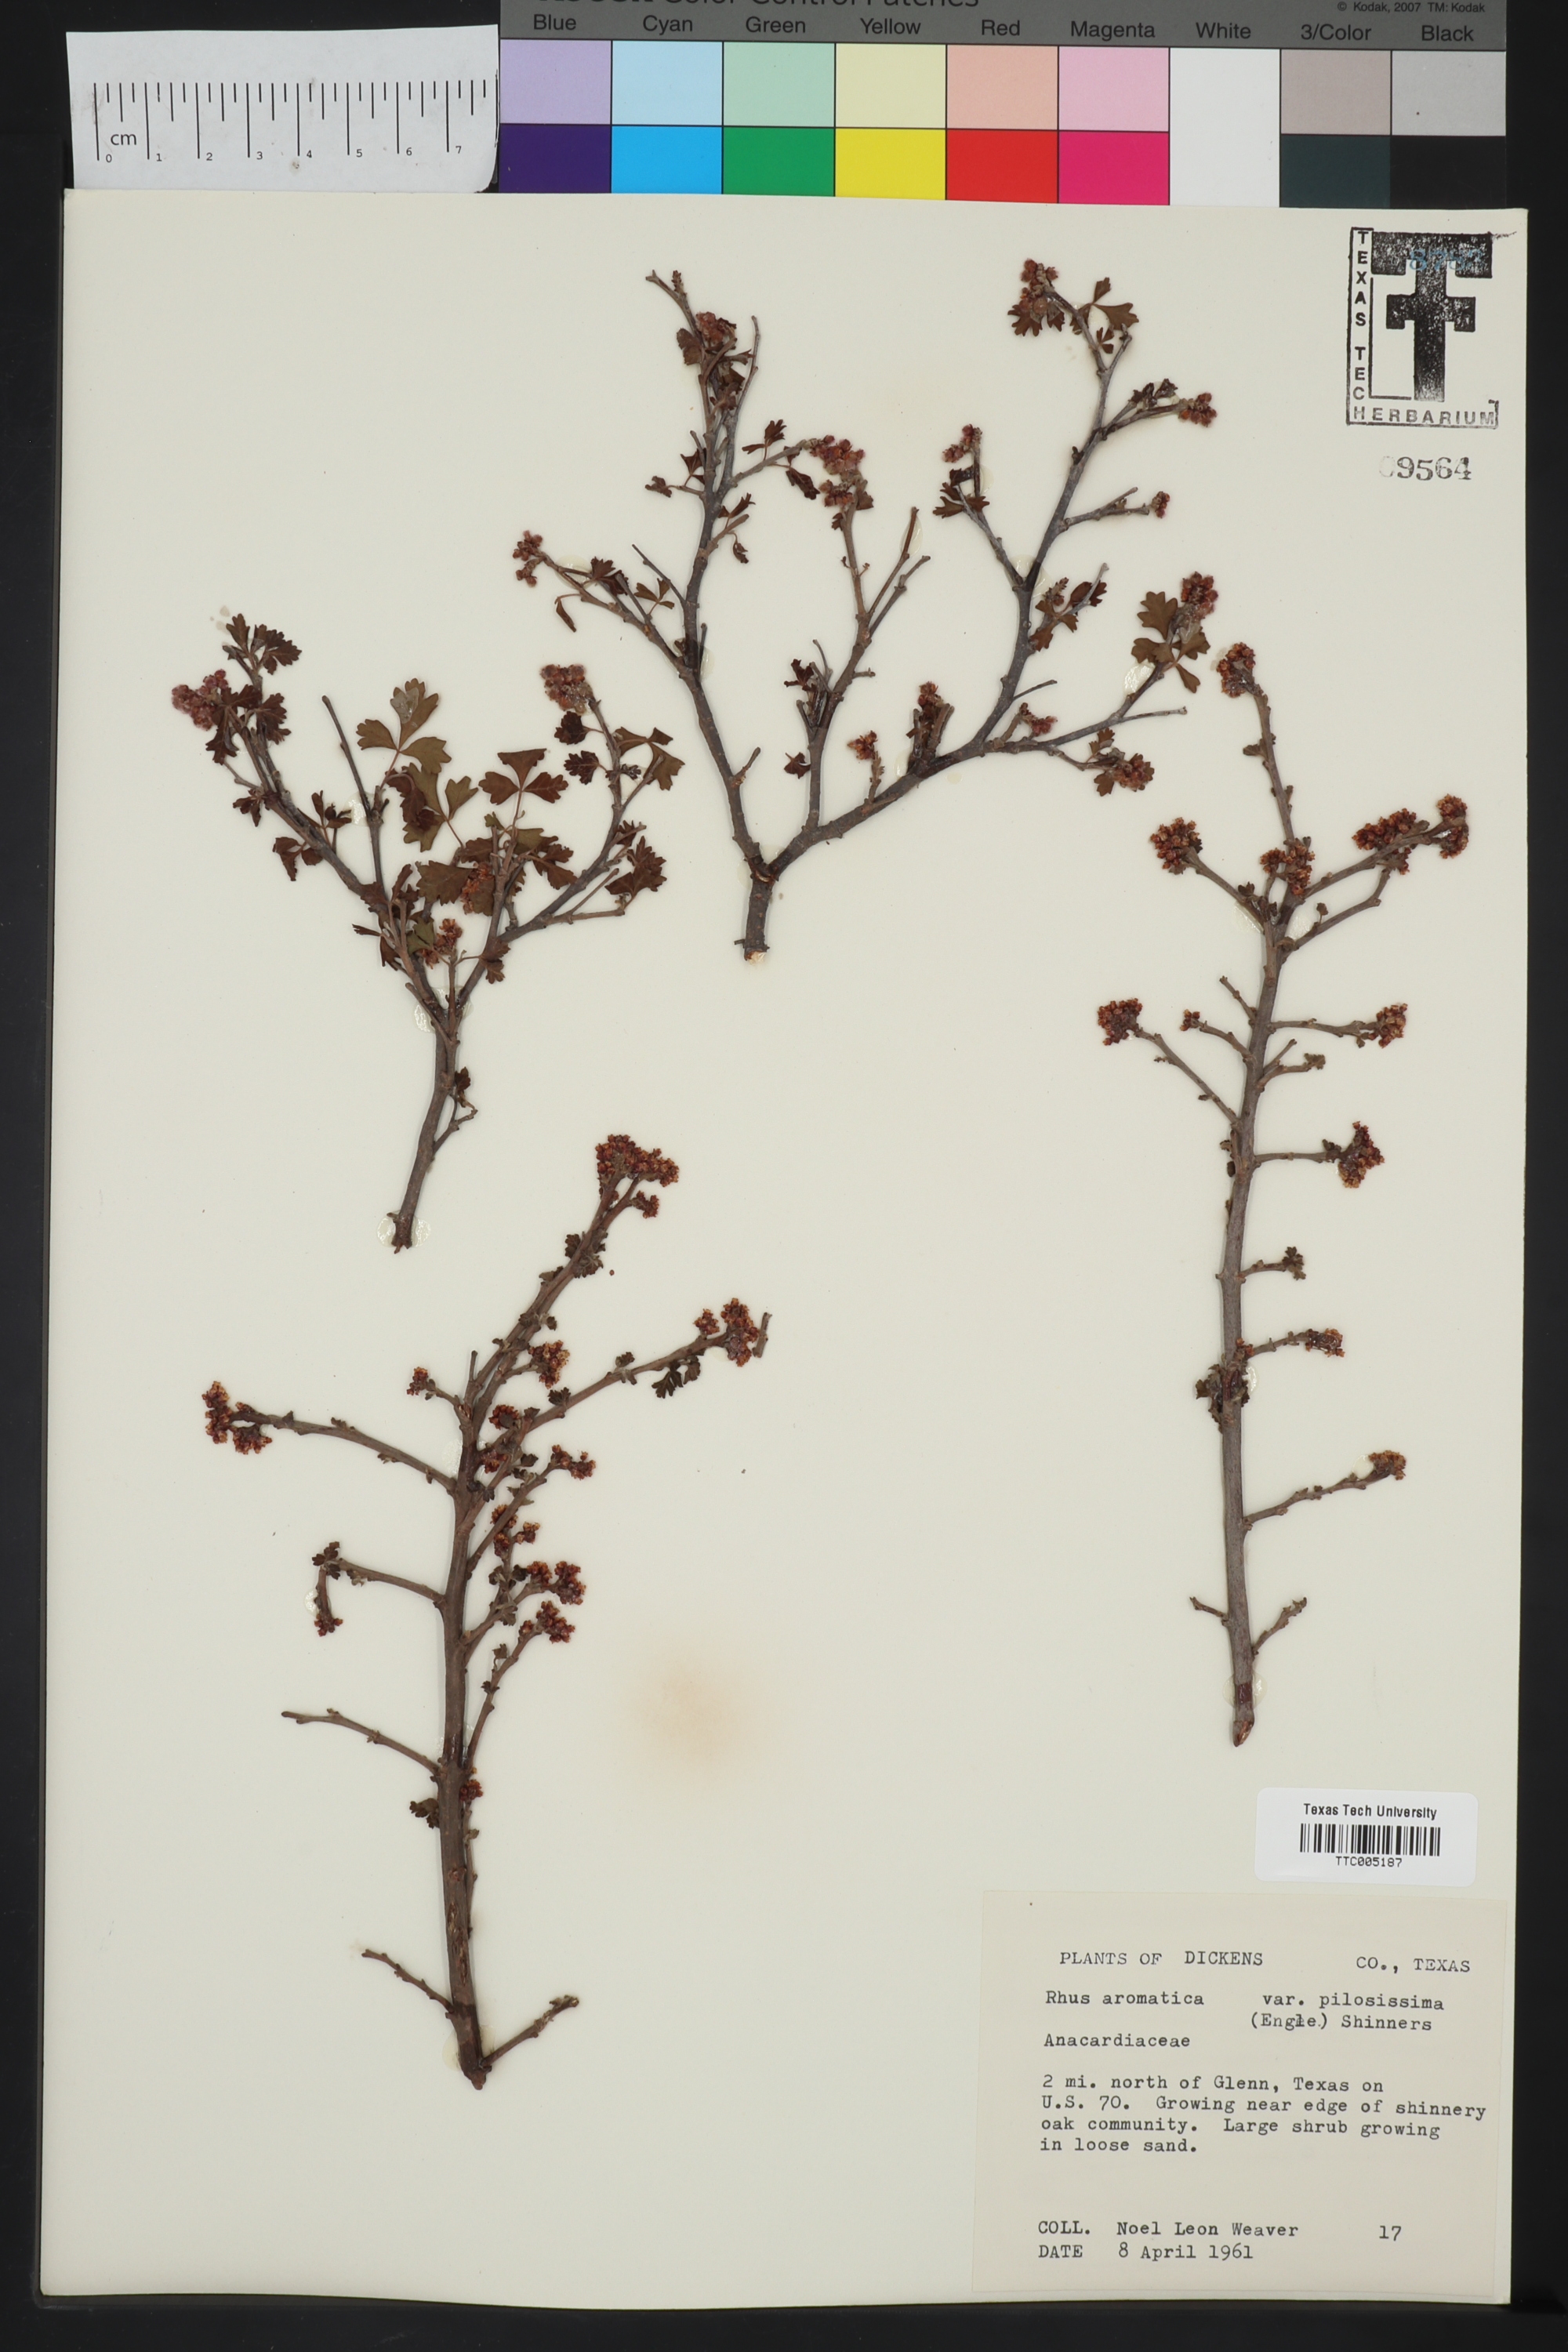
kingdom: Plantae
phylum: Tracheophyta
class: Magnoliopsida
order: Sapindales
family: Anacardiaceae
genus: Rhus
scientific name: Rhus trilobata
